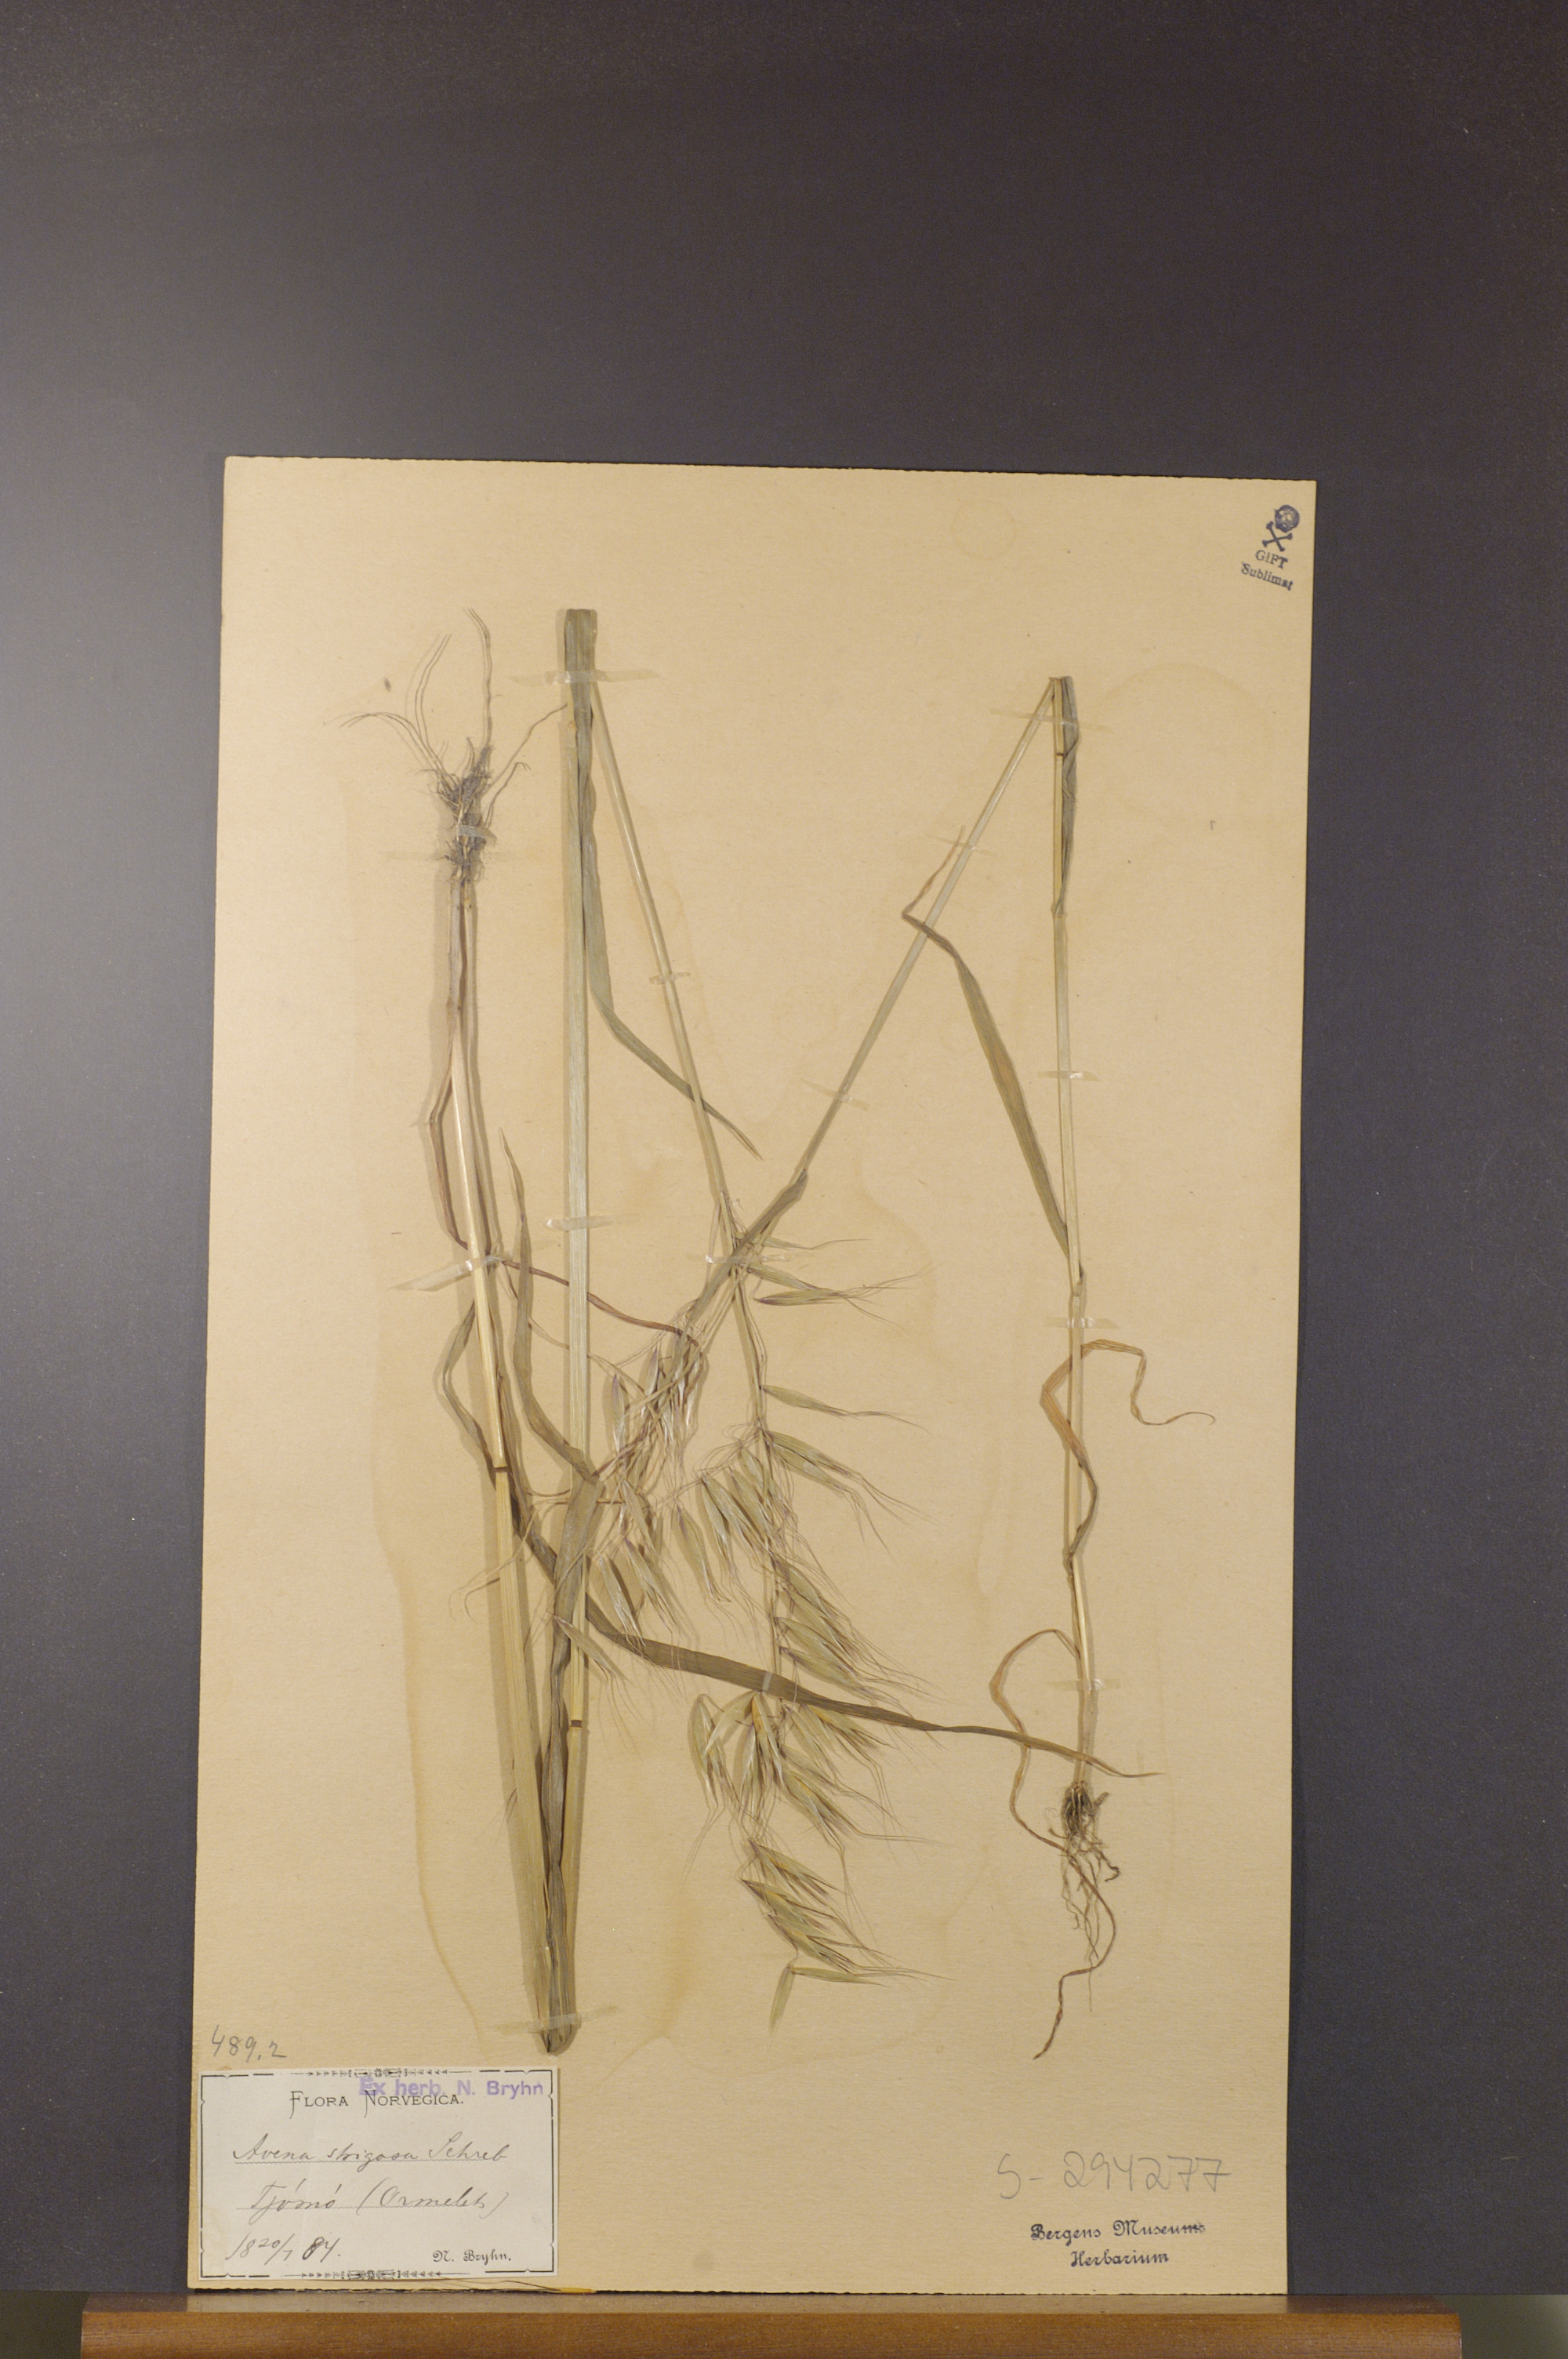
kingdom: Plantae
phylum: Tracheophyta
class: Liliopsida
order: Poales
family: Poaceae
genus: Avena
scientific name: Avena strigosa
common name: Bristle oat
